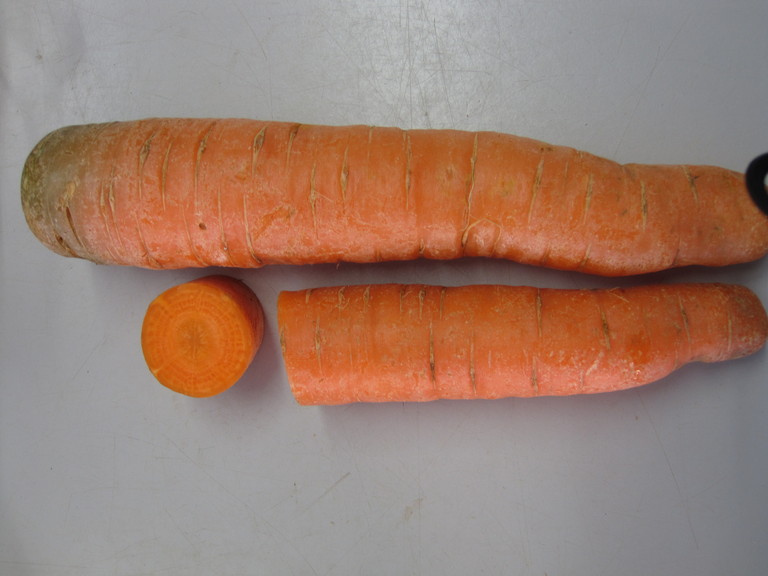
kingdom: Plantae
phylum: Tracheophyta
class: Magnoliopsida
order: Apiales
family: Apiaceae
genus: Daucus
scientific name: Daucus carota
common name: Wild carrot
